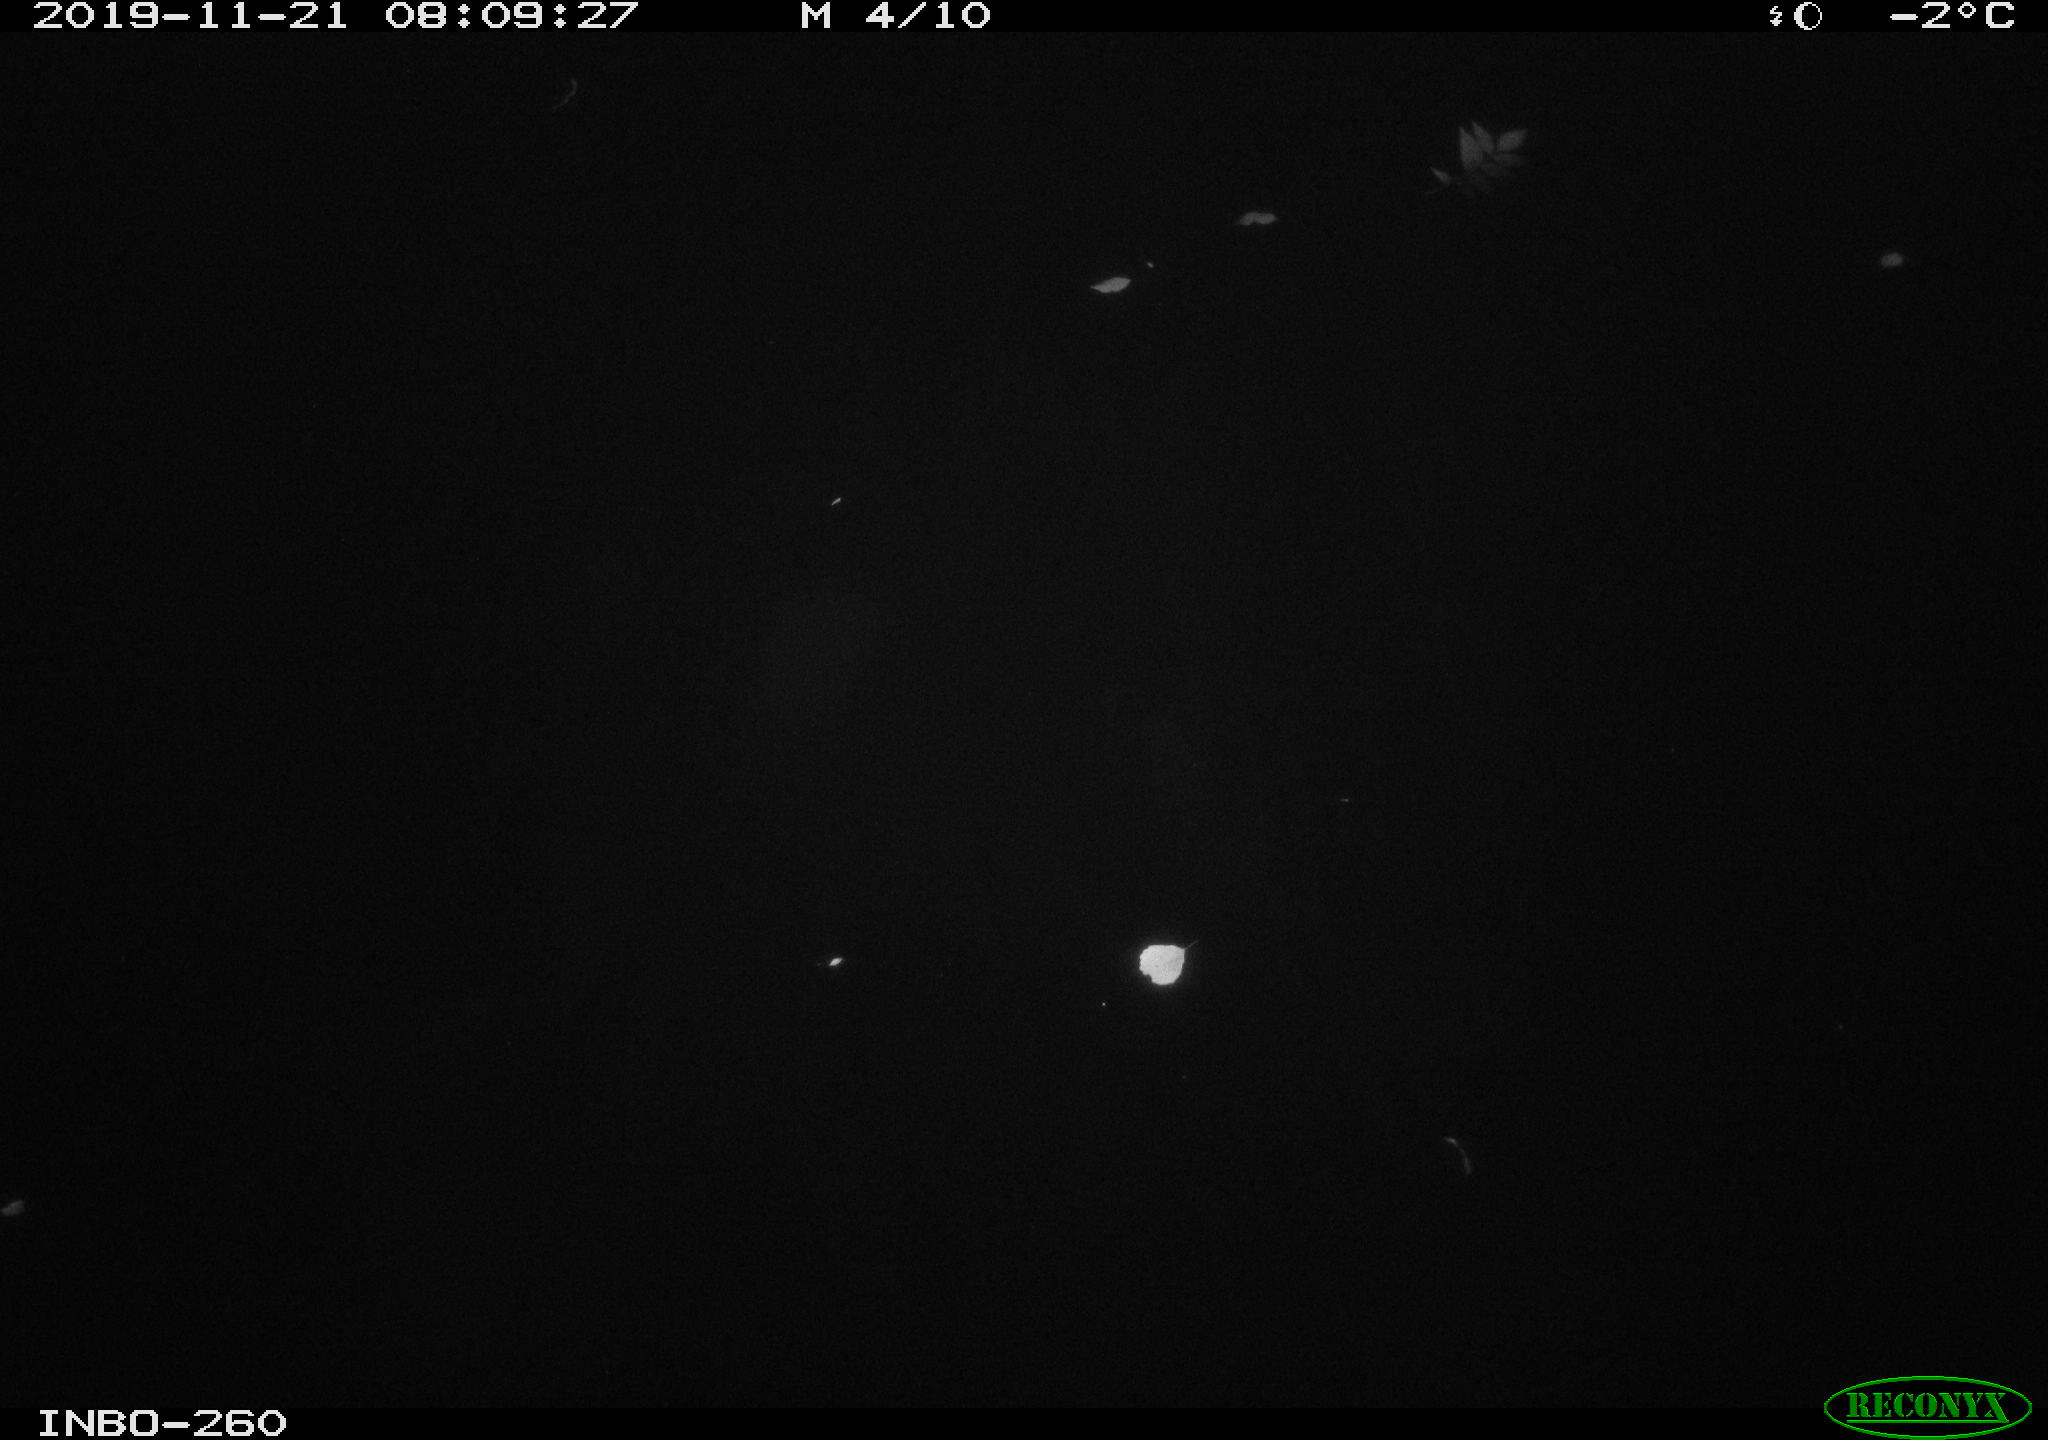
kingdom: Animalia
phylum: Chordata
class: Aves
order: Anseriformes
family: Anatidae
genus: Anas
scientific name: Anas platyrhynchos
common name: Mallard
